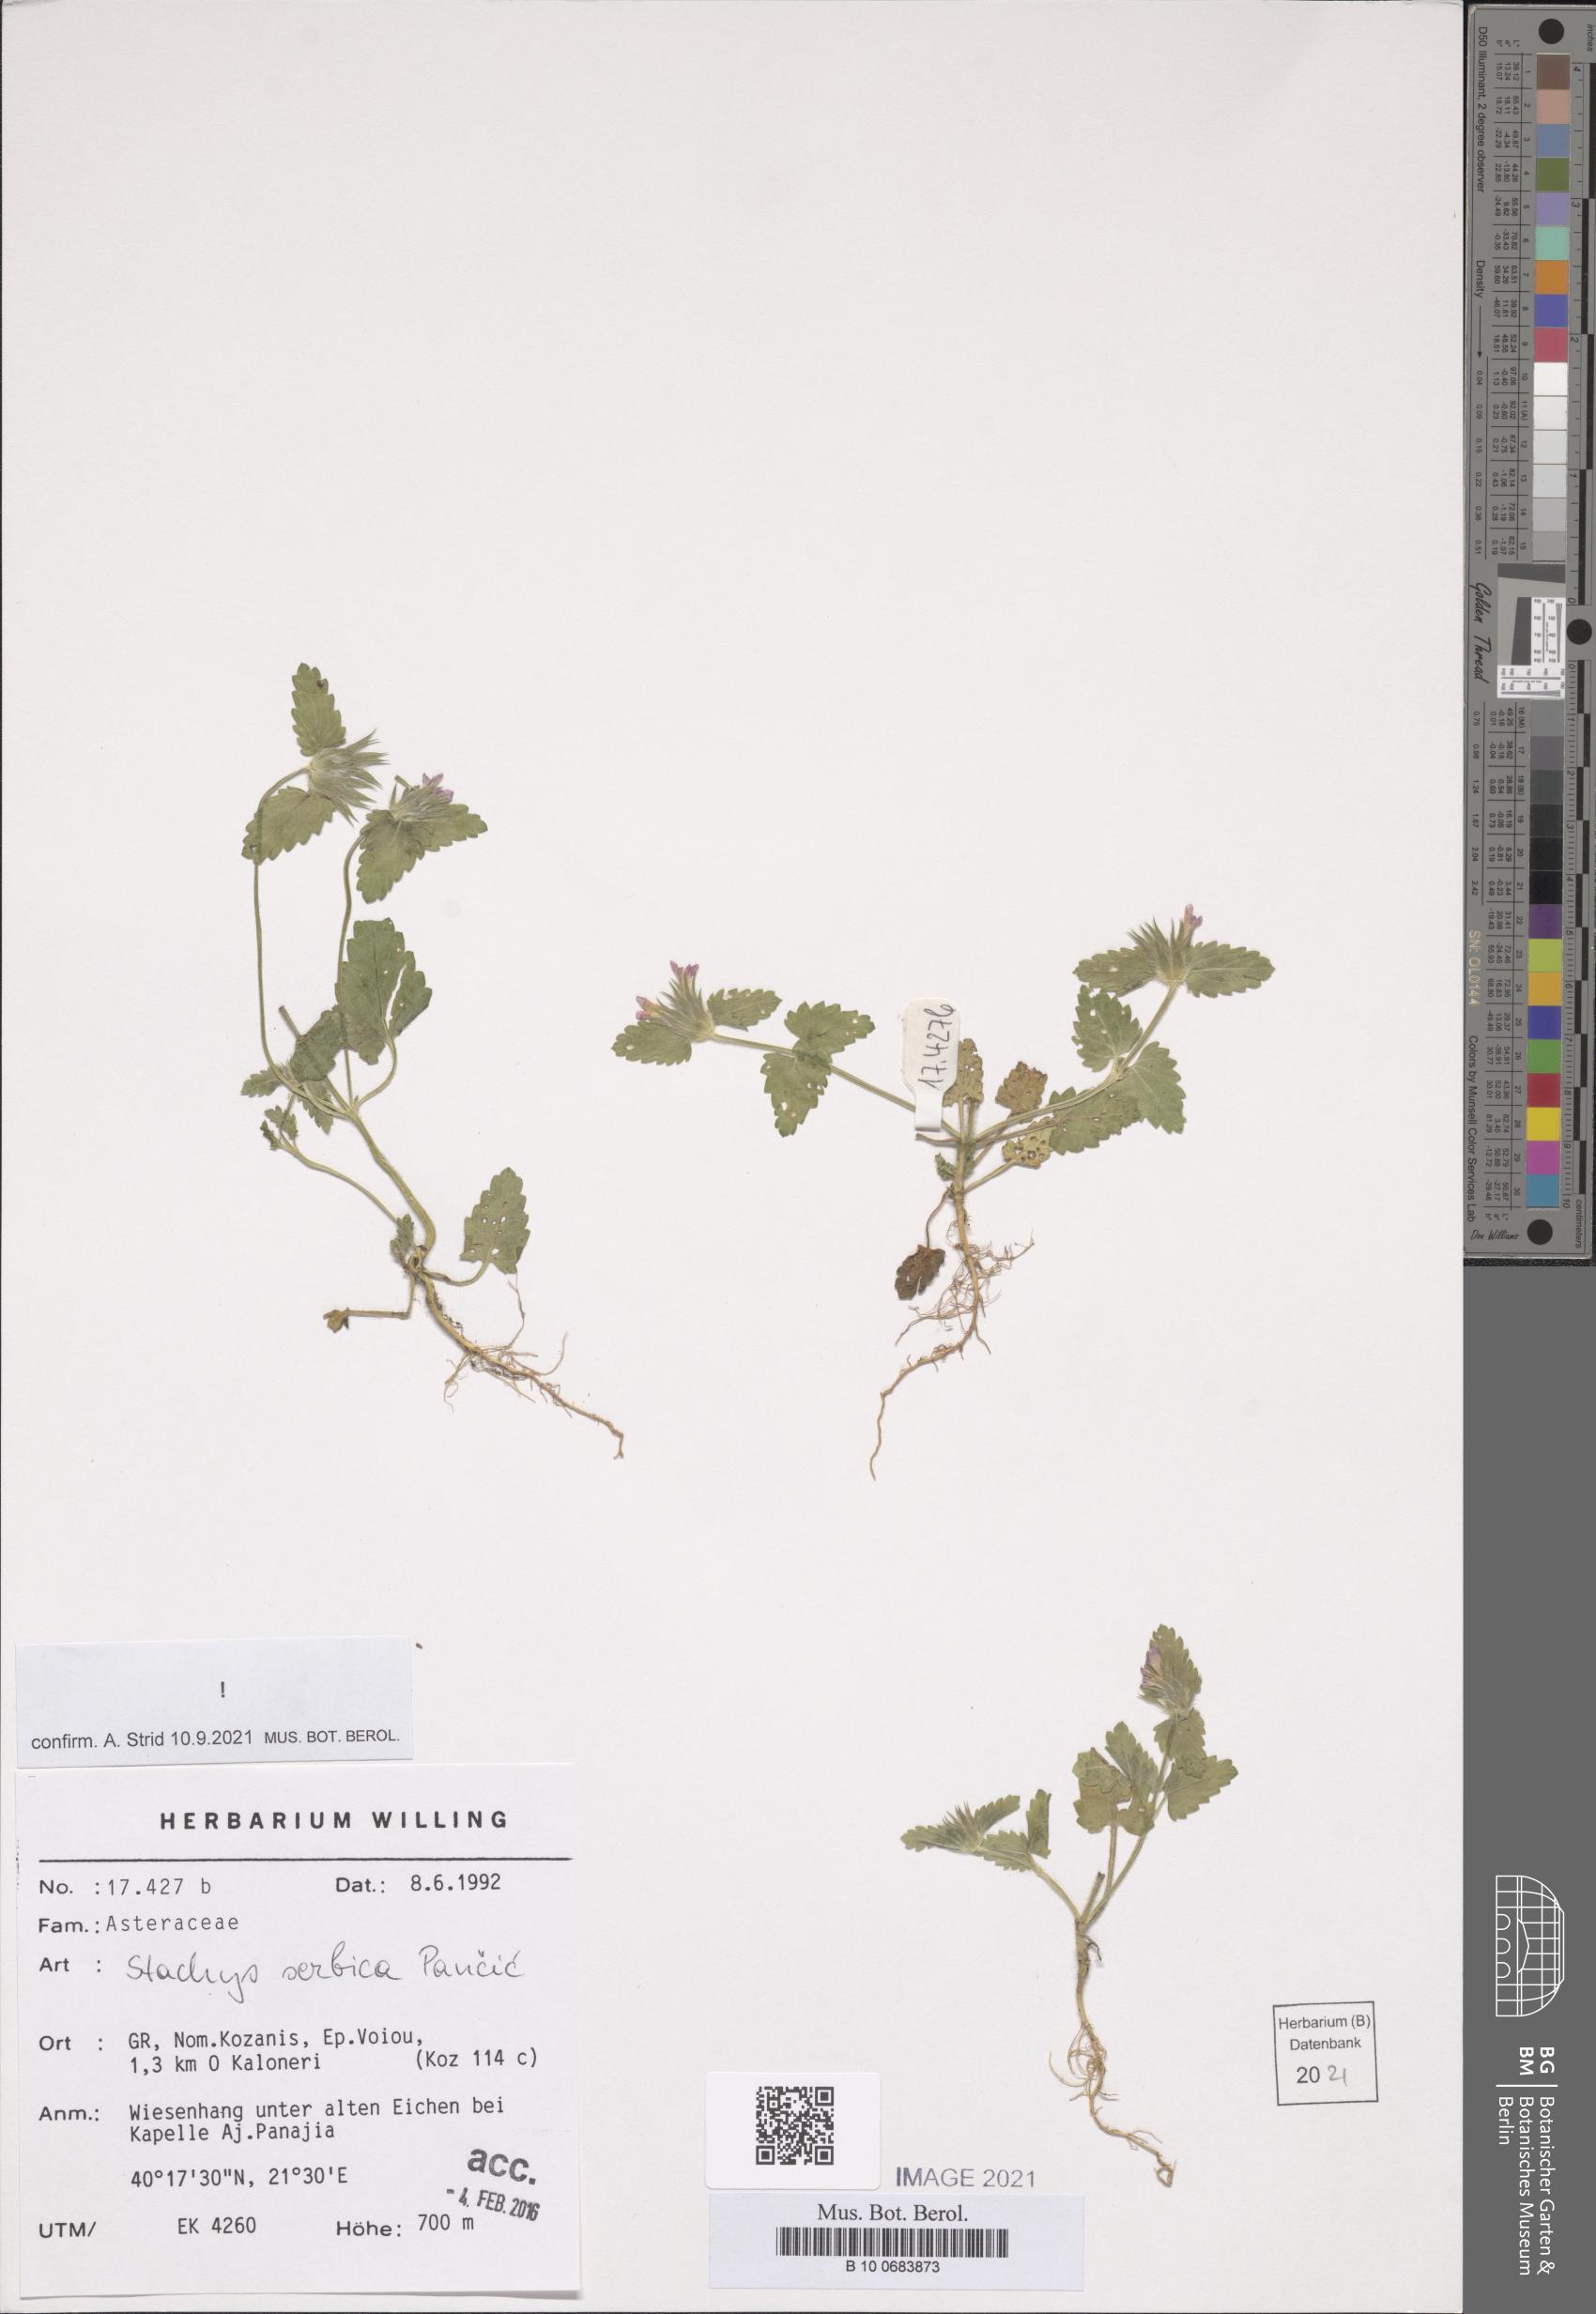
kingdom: Plantae
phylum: Tracheophyta
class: Magnoliopsida
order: Lamiales
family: Lamiaceae
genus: Stachys
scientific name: Stachys serbica
